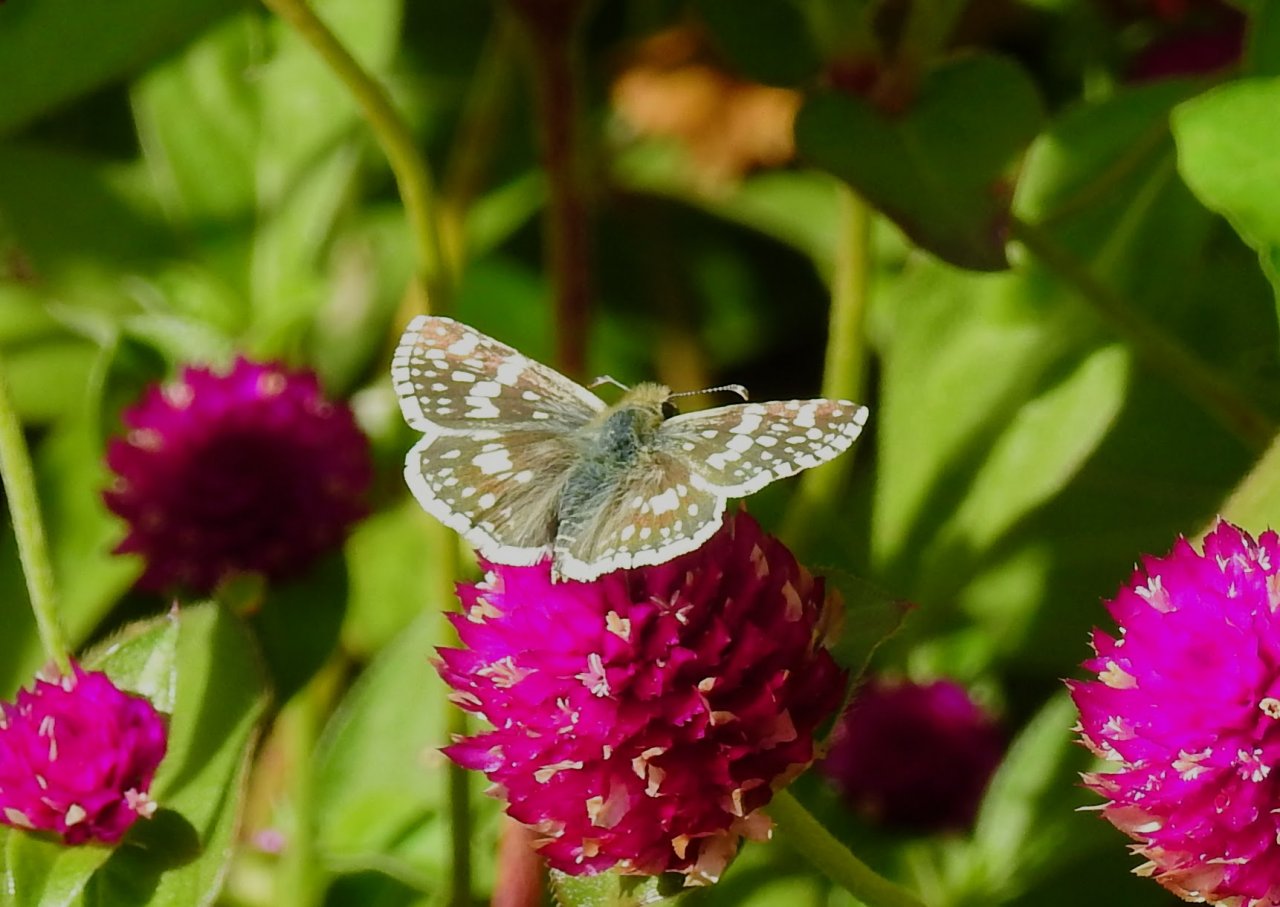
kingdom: Animalia
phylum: Arthropoda
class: Insecta
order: Lepidoptera
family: Hesperiidae
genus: Pyrgus
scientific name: Pyrgus communis
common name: Common Checkered-Skipper
